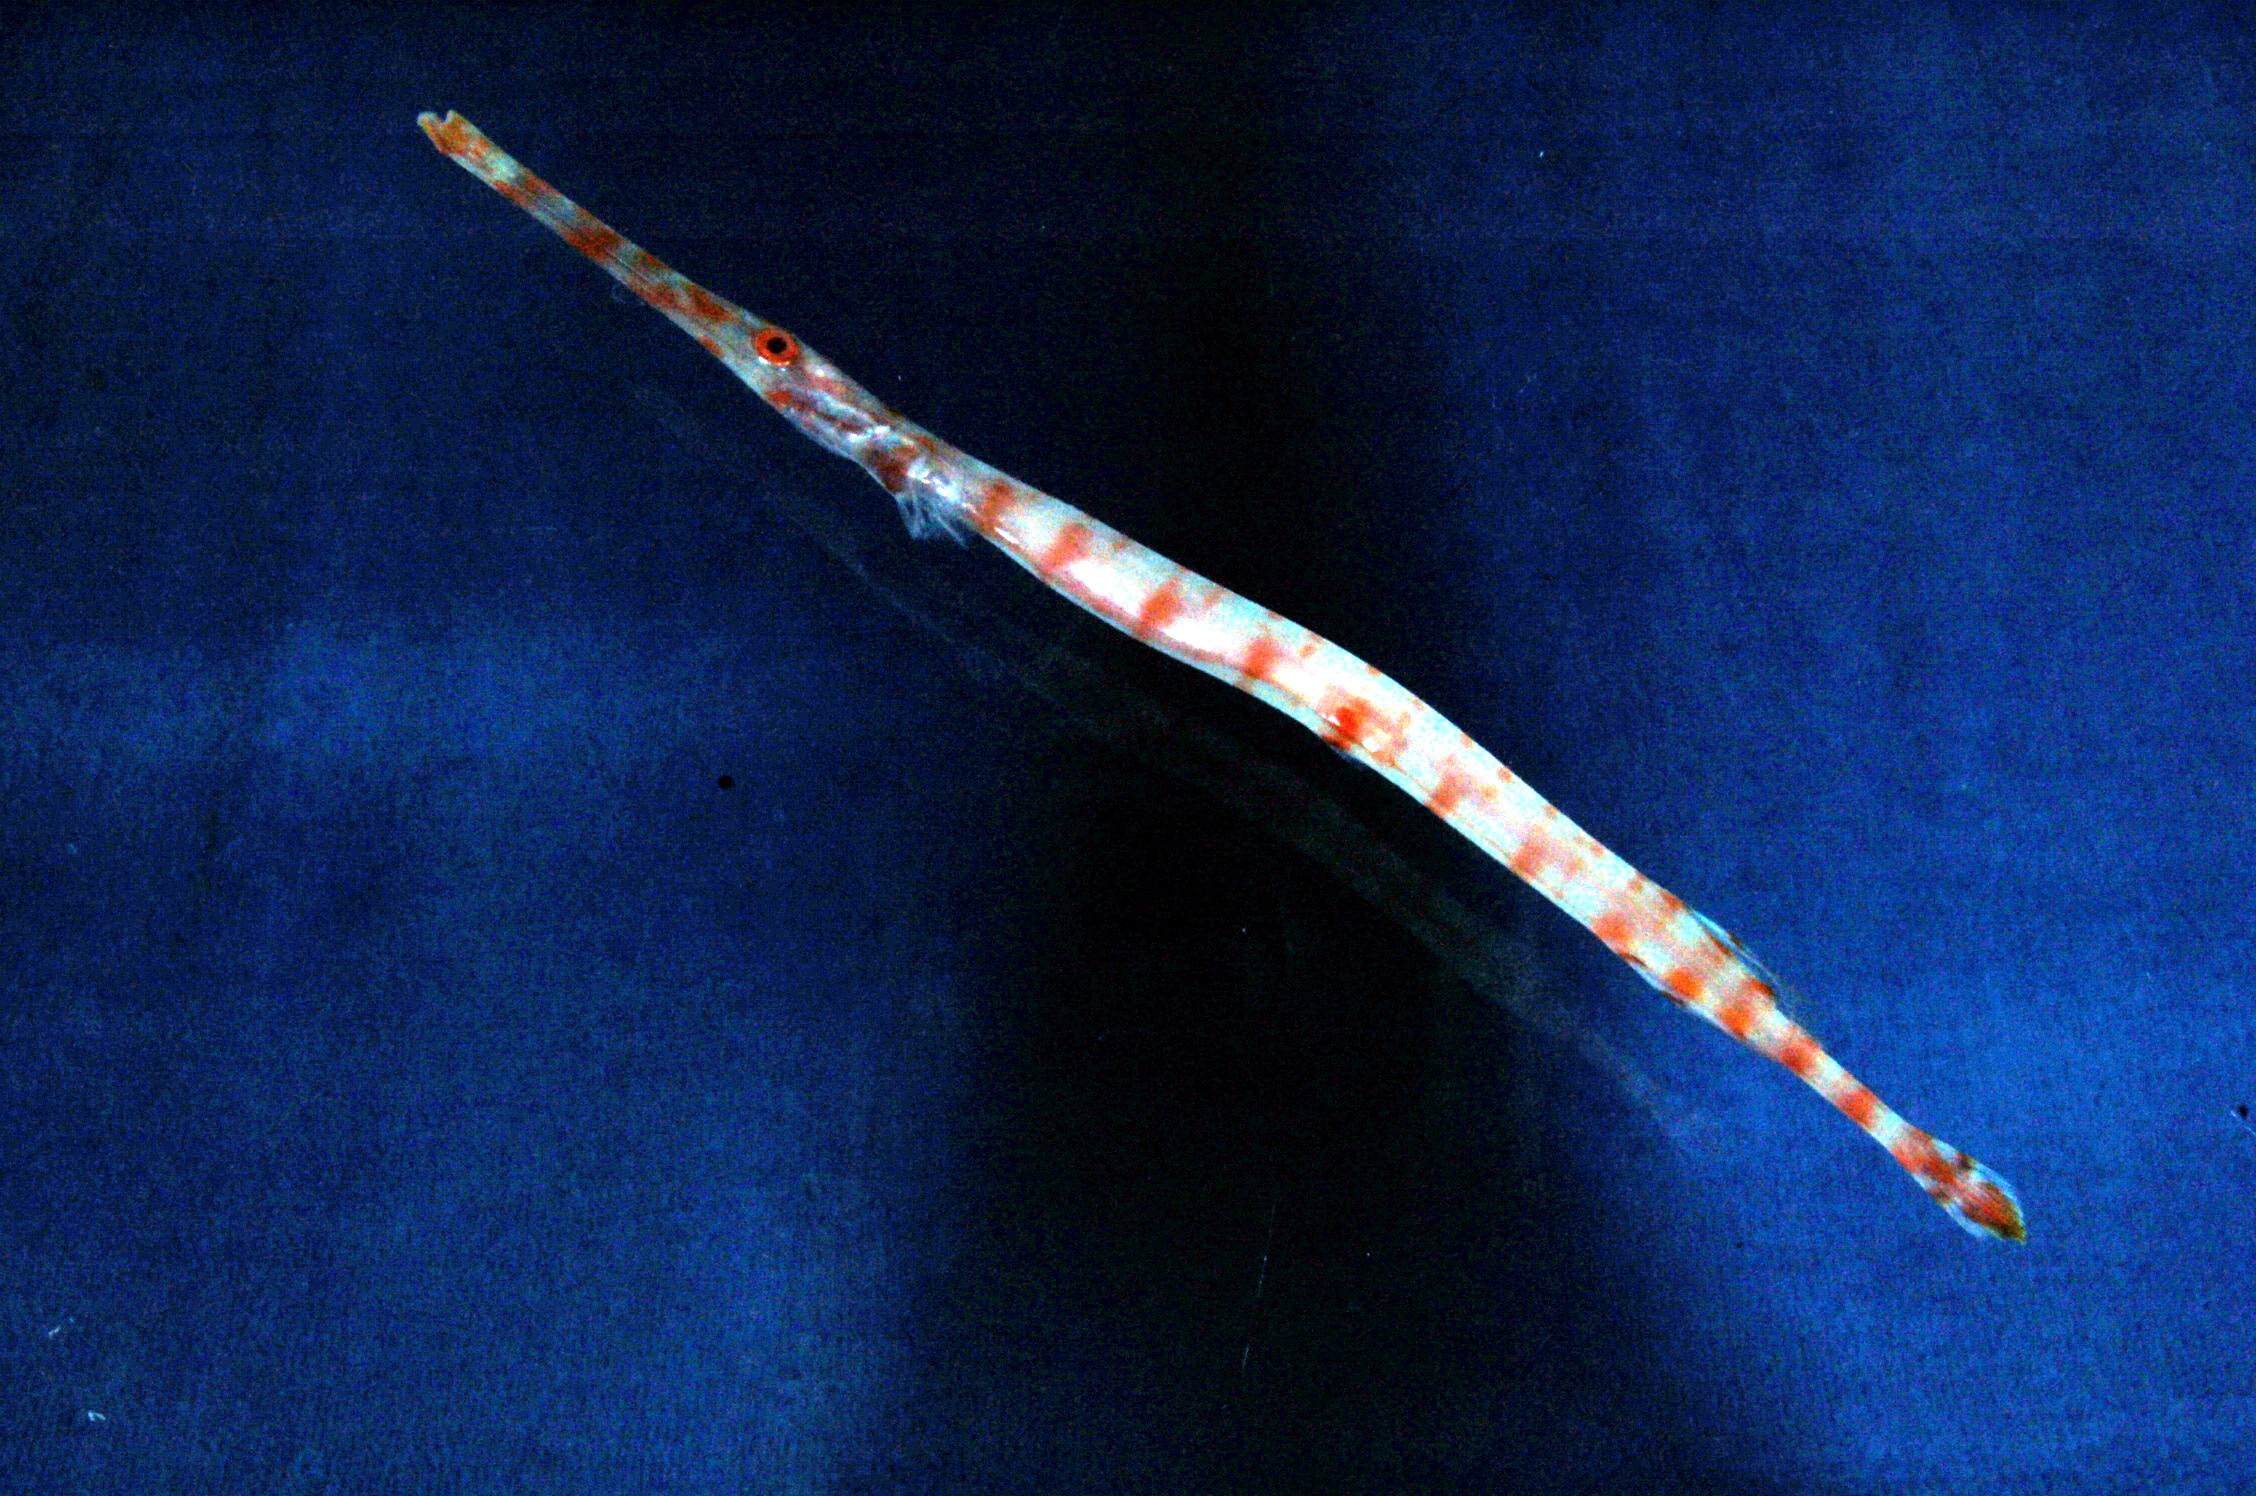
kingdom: Animalia
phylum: Chordata
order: Syngnathiformes
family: Aulostomidae
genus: Aulostomus
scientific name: Aulostomus chinensis
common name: Chinese trumpetfish
